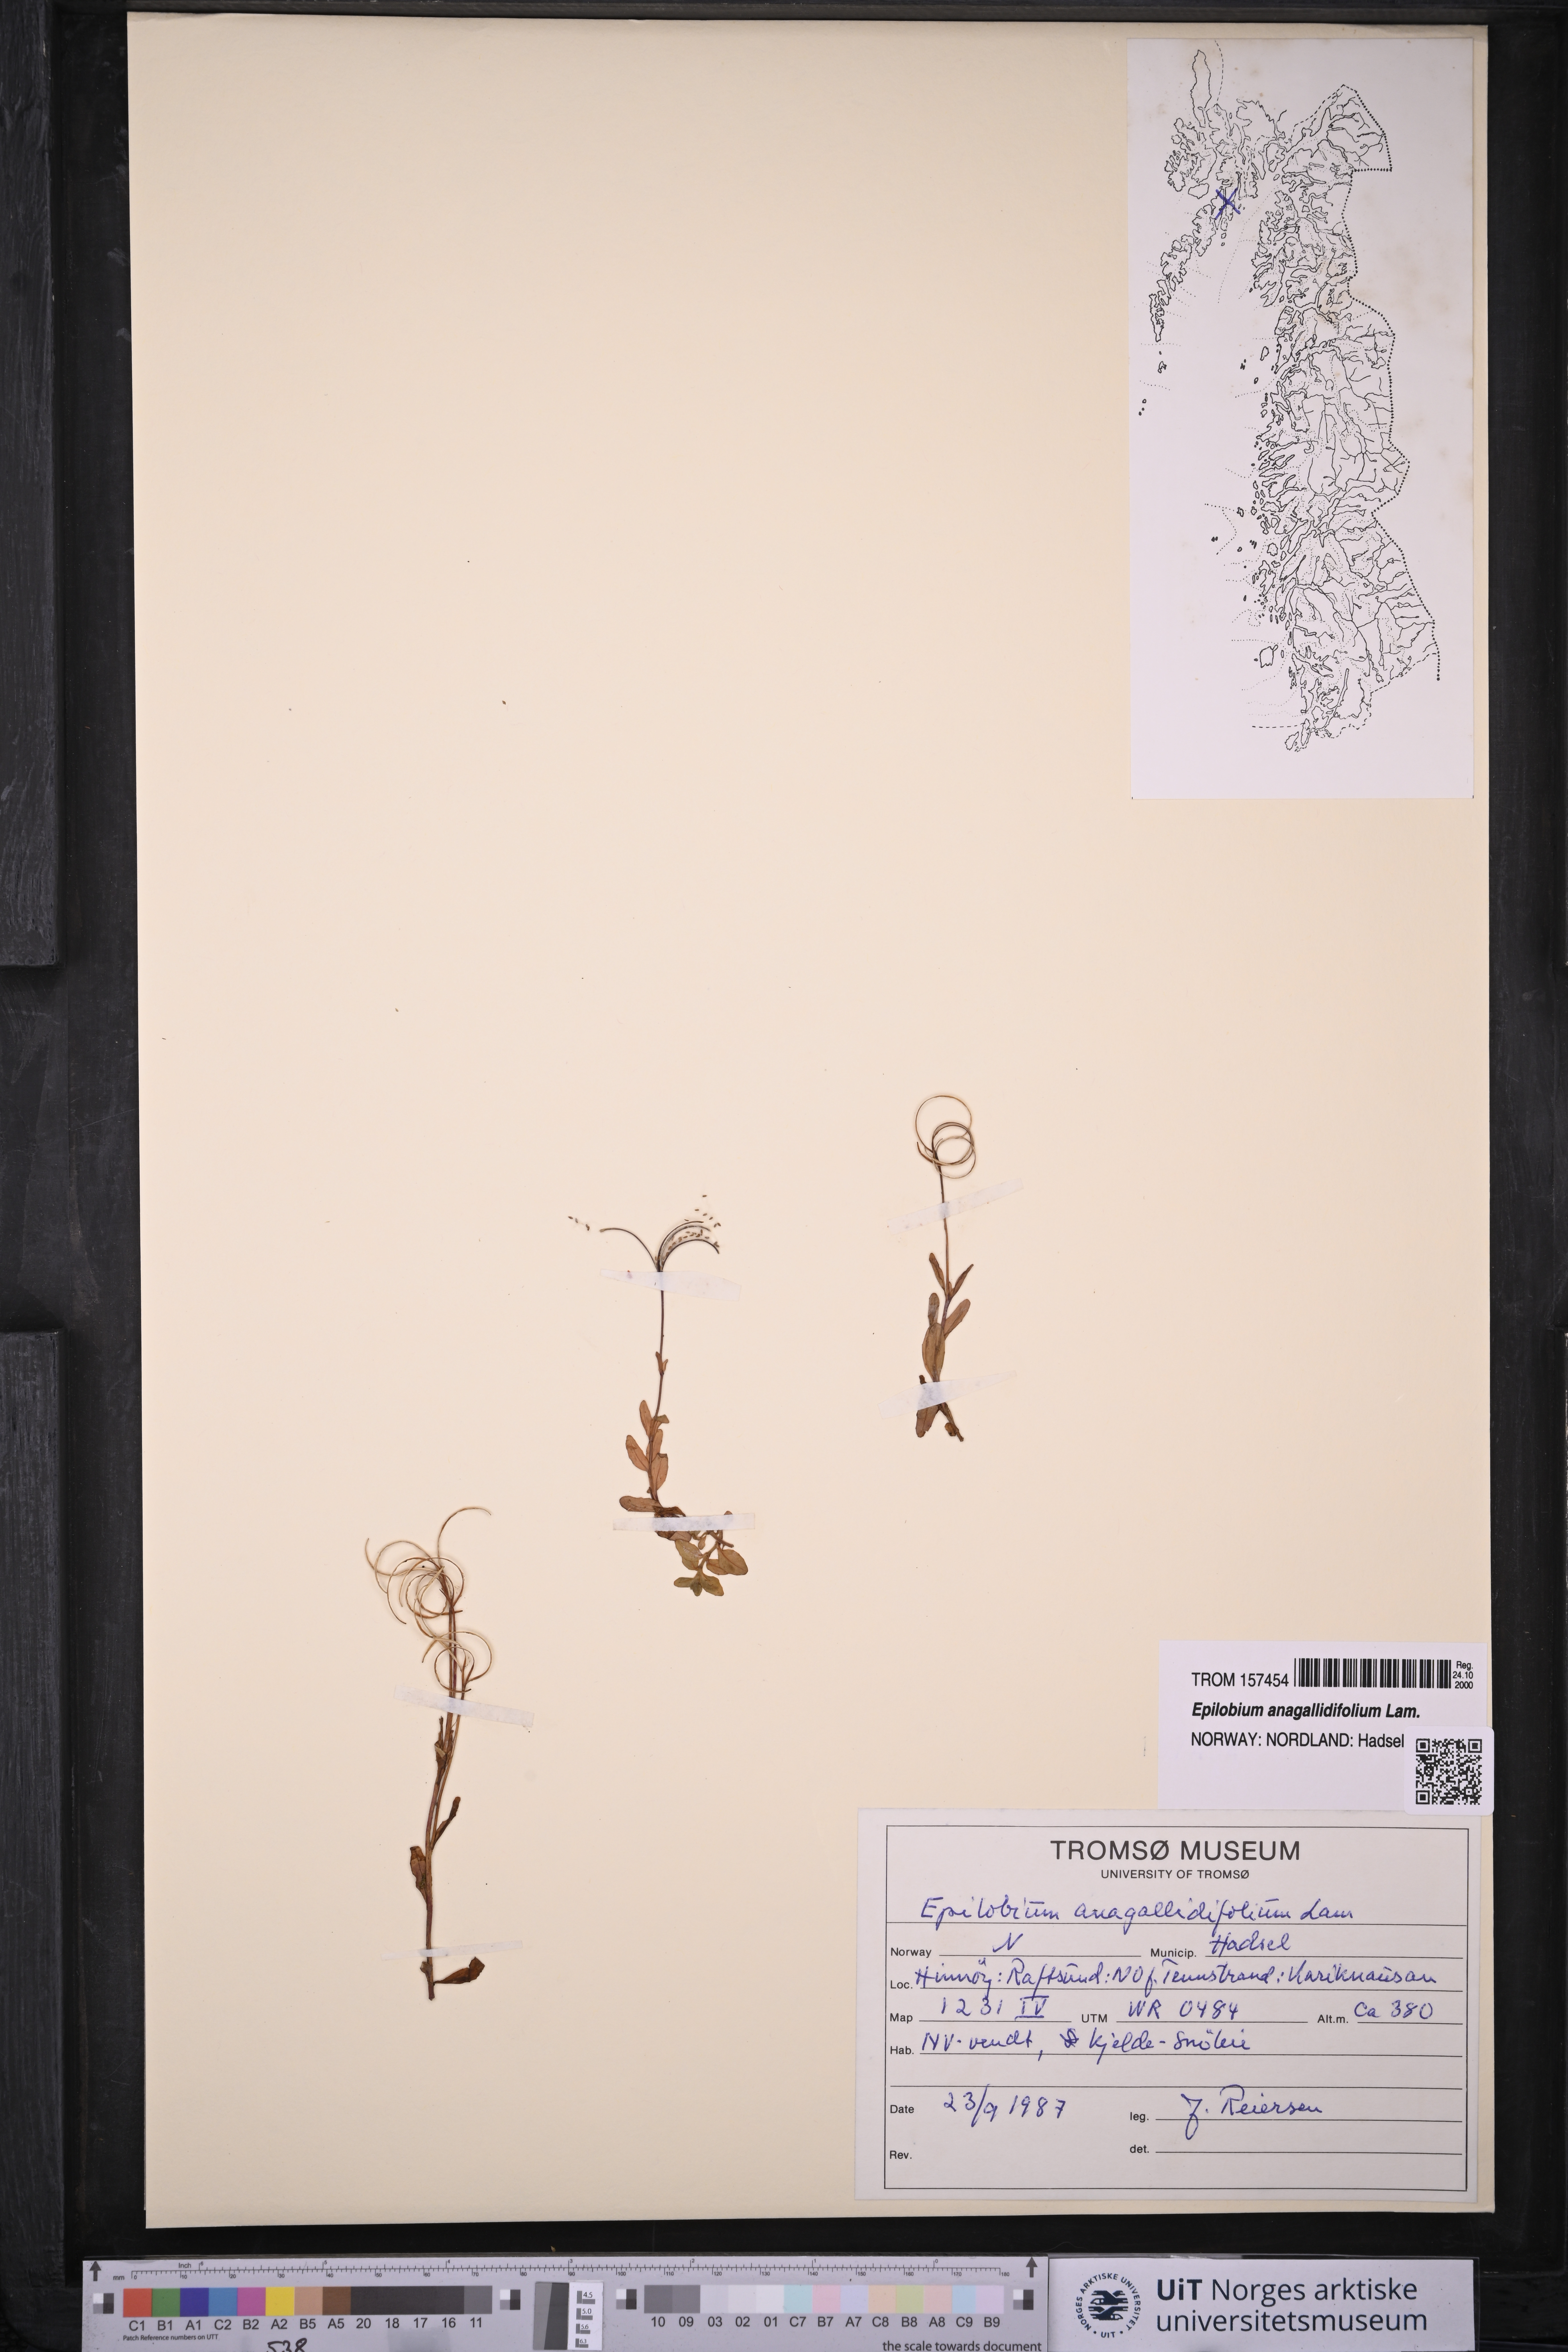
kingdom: Plantae
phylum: Tracheophyta
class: Magnoliopsida
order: Myrtales
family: Onagraceae
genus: Epilobium
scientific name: Epilobium anagallidifolium
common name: Alpine willowherb
